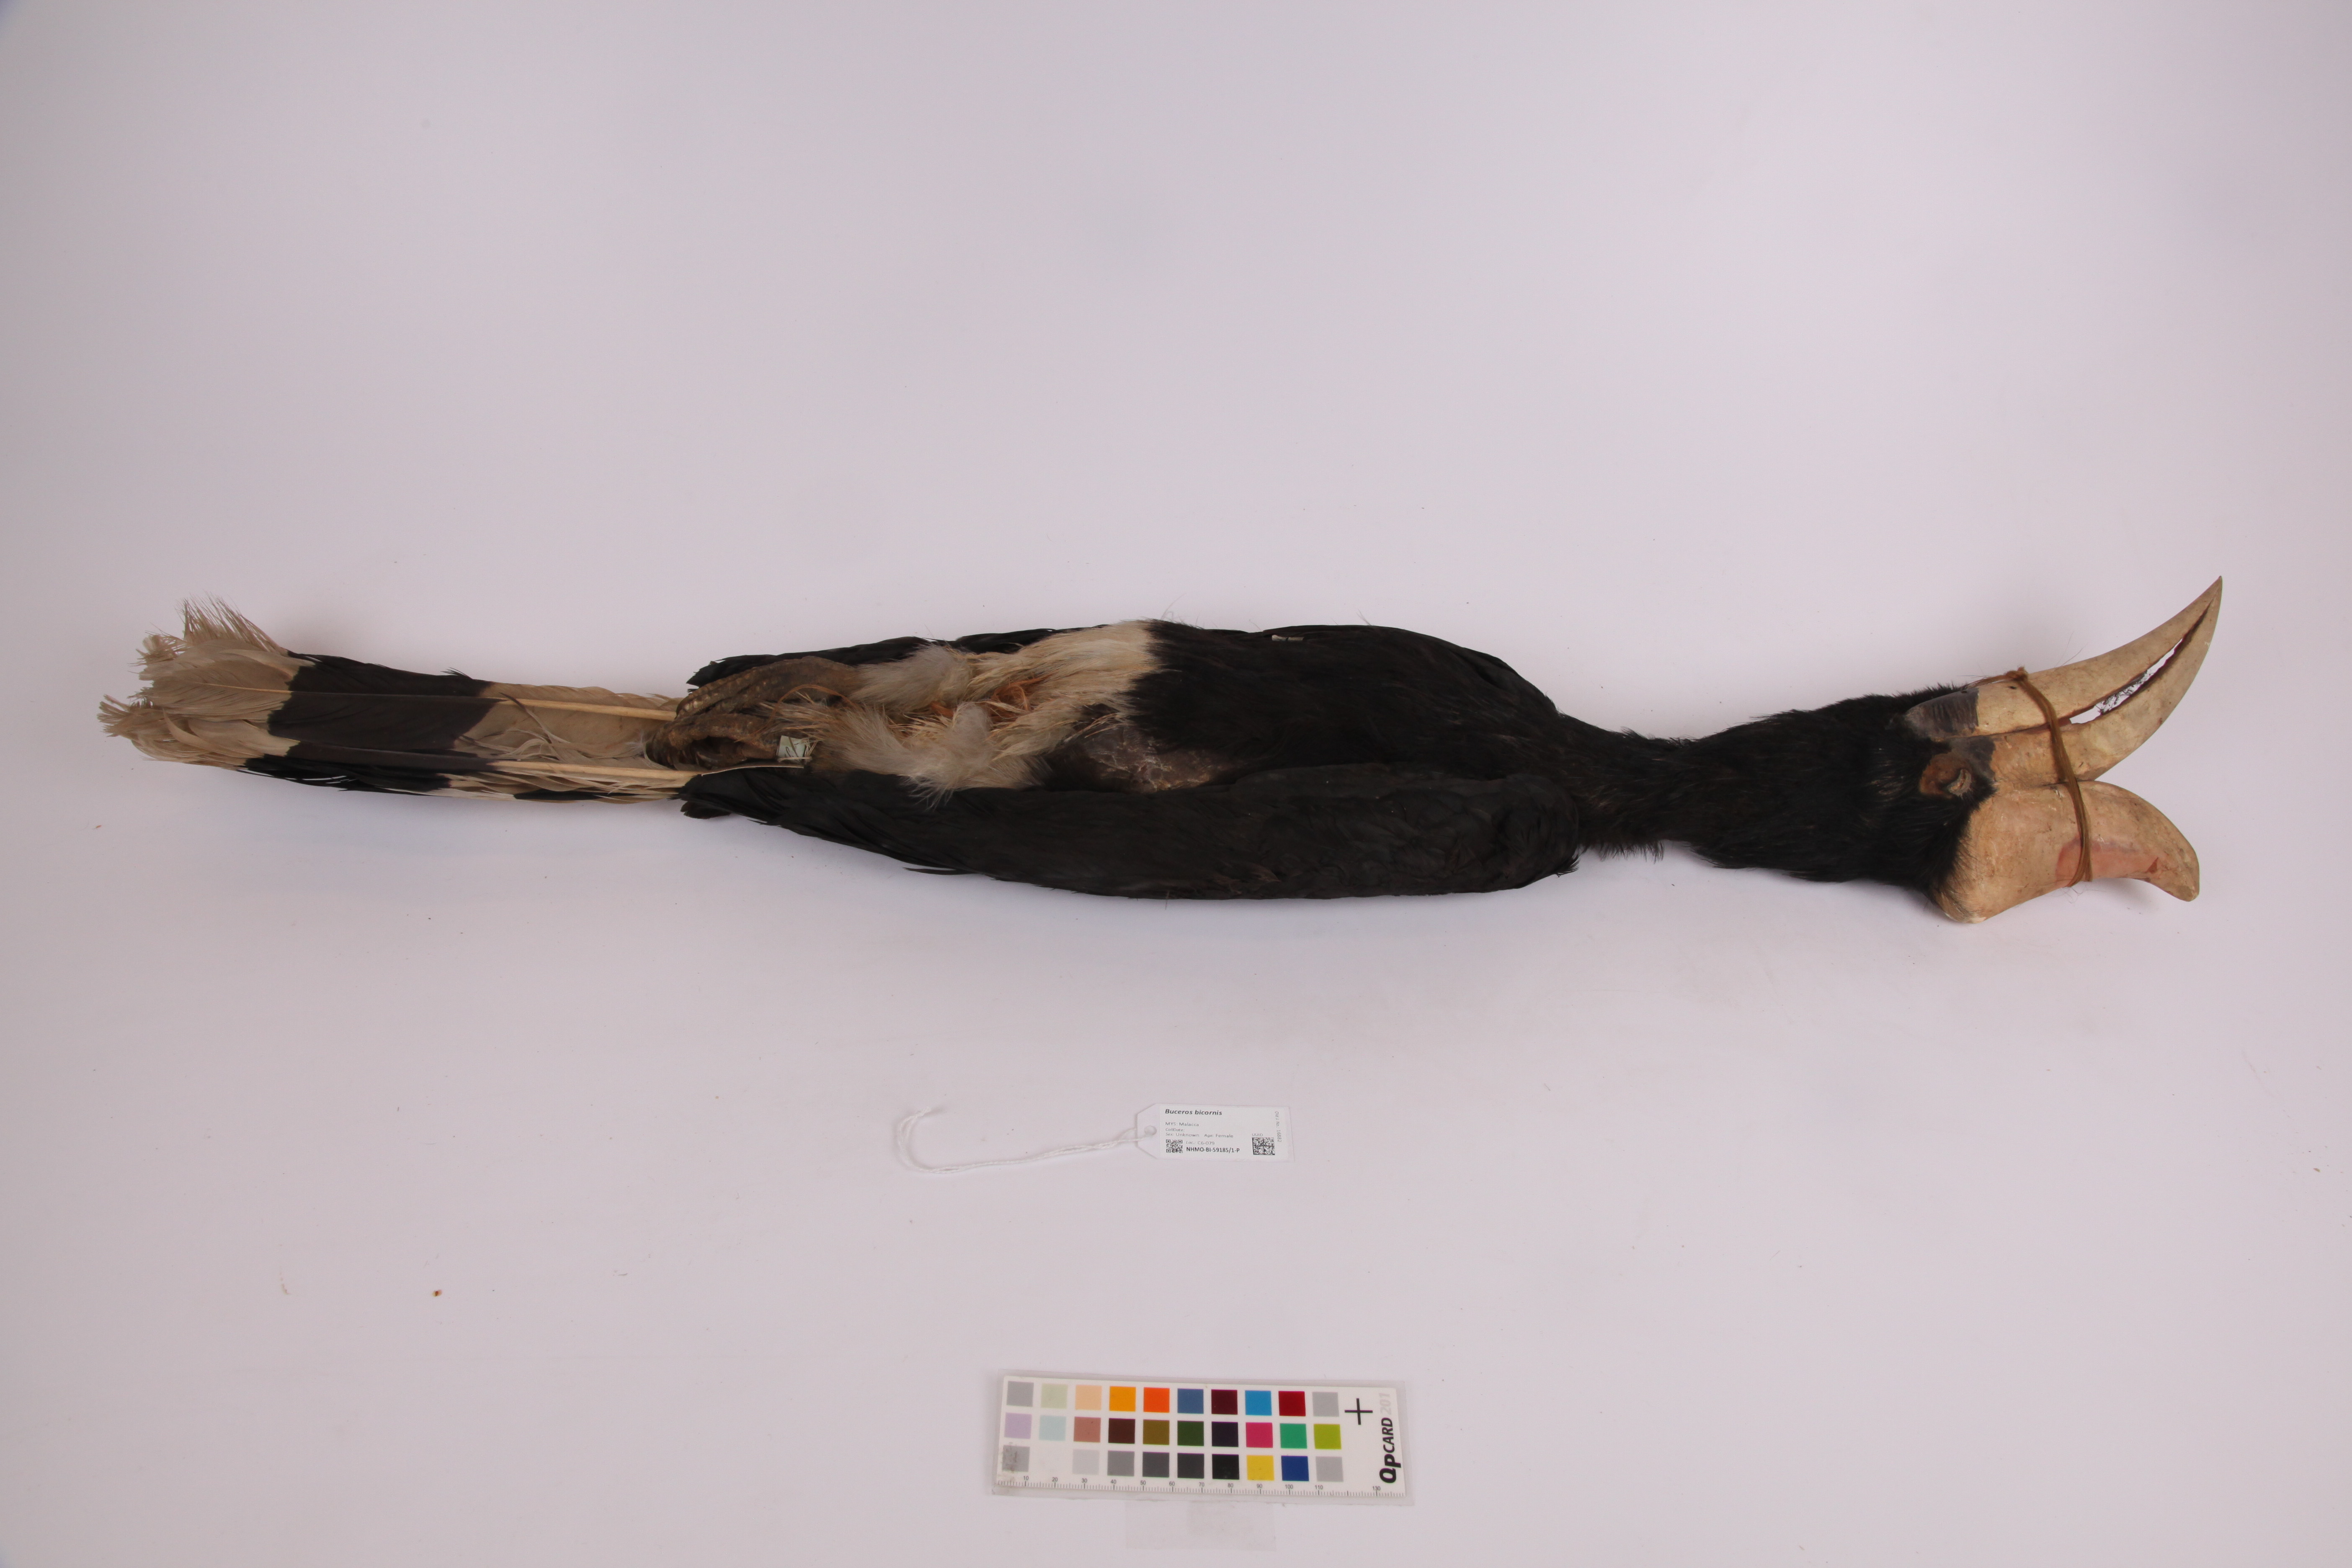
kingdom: Animalia
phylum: Chordata
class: Aves
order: Bucerotiformes
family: Bucerotidae
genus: Buceros
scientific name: Buceros bicornis
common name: Great hornbill
